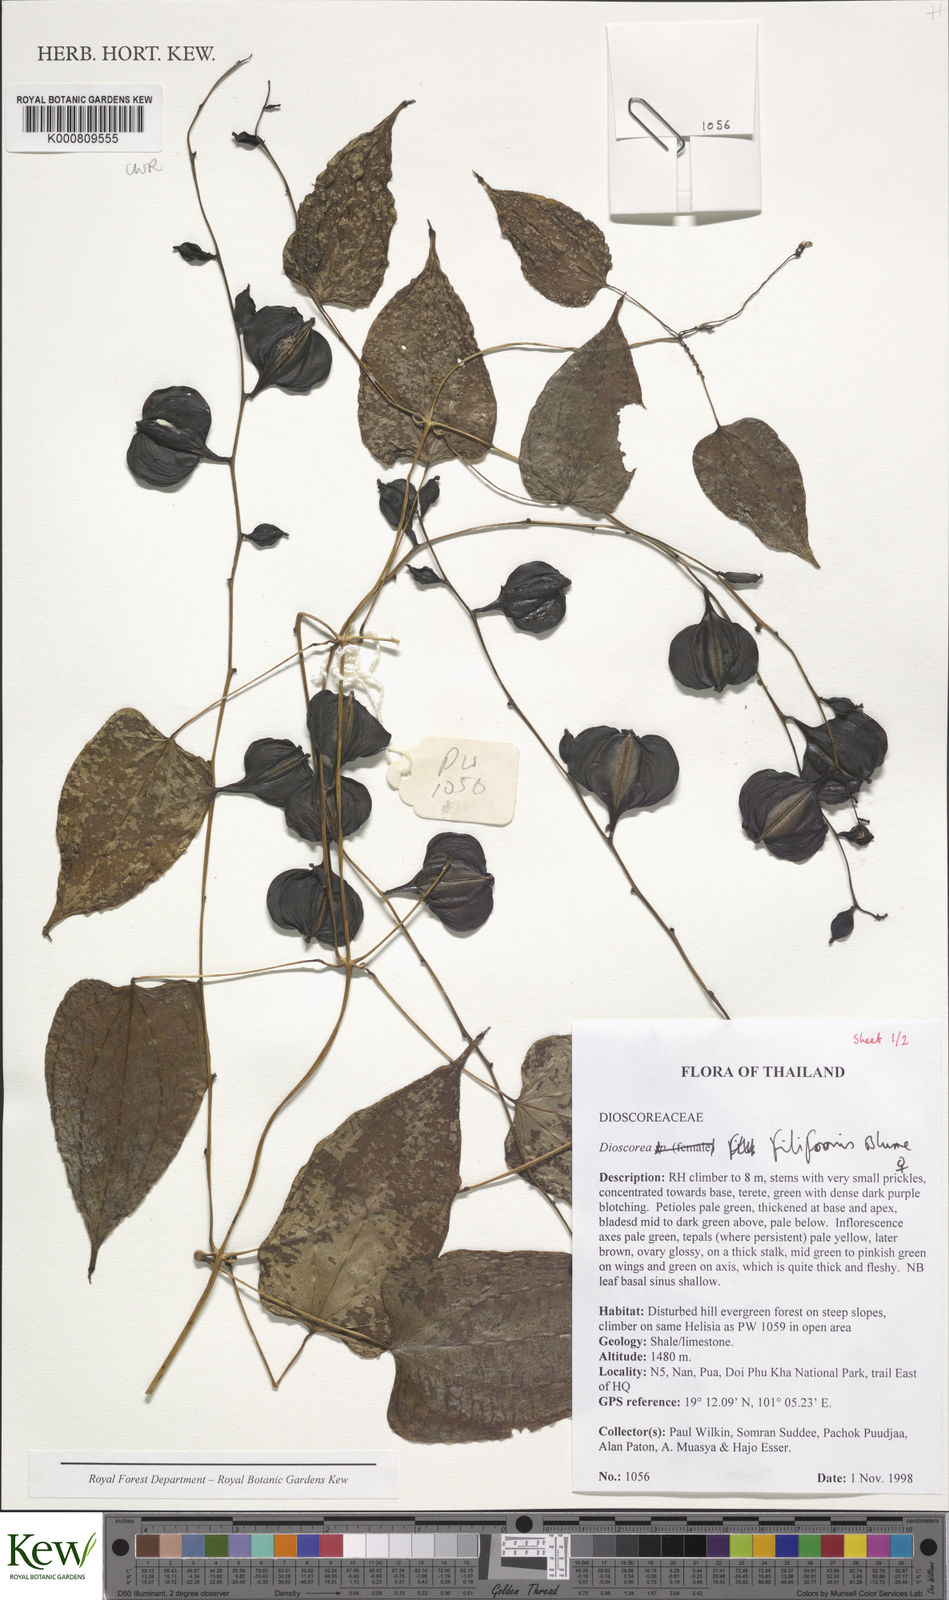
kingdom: Plantae
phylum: Tracheophyta
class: Liliopsida
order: Dioscoreales
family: Dioscoreaceae
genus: Dioscorea
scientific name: Dioscorea filiformis
